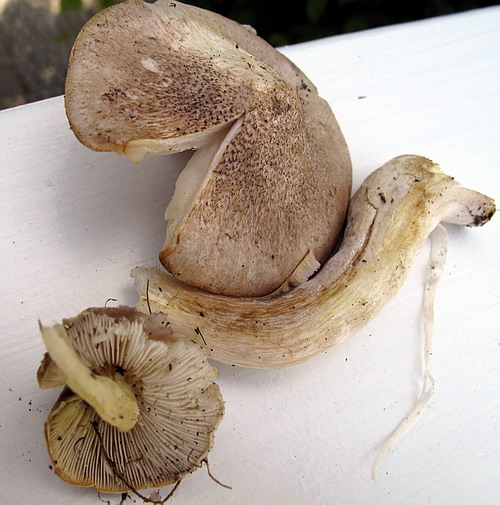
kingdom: Fungi
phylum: Basidiomycota
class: Agaricomycetes
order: Agaricales
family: Tricholomataceae
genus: Tricholoma
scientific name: Tricholoma scalpturatum
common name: gulplettet ridderhat
